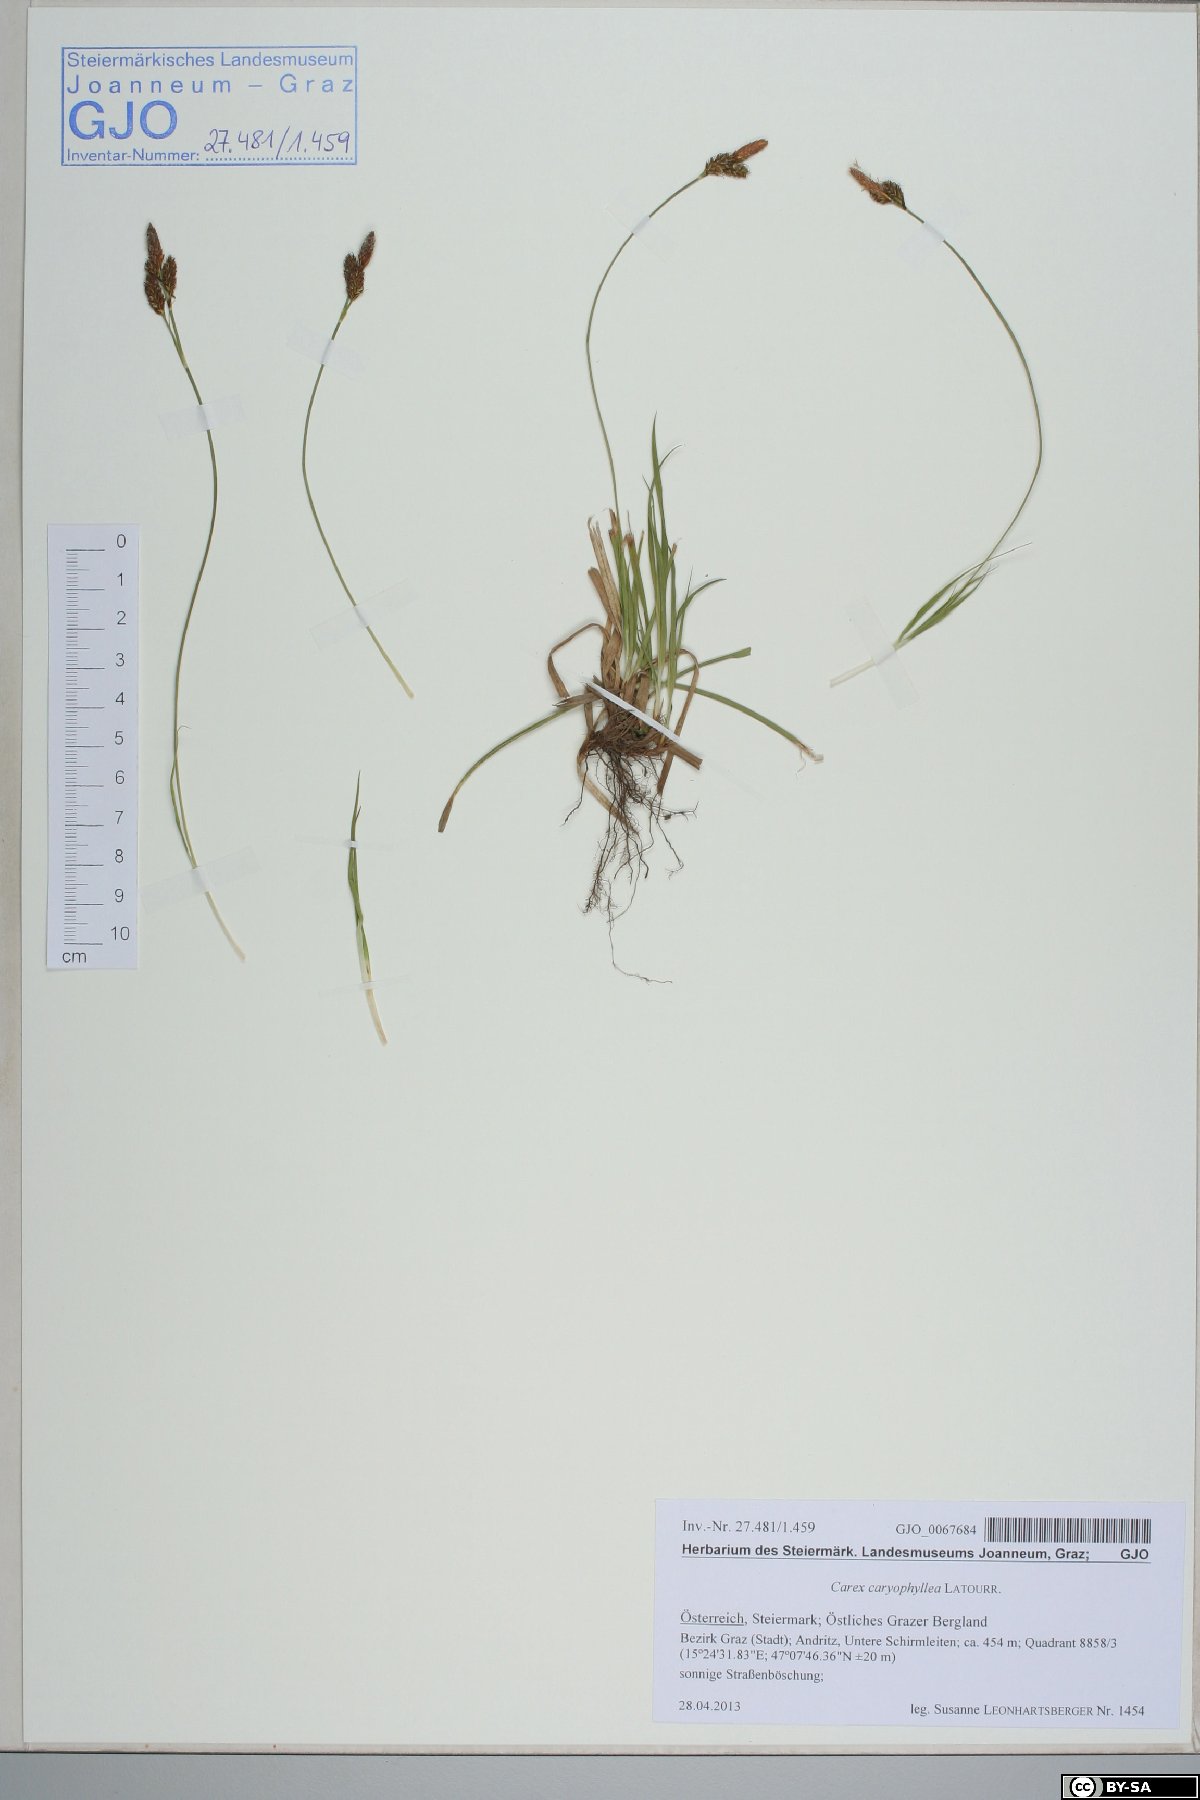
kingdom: Plantae
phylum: Tracheophyta
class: Liliopsida
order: Poales
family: Cyperaceae
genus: Carex
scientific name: Carex caryophyllea
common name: Spring sedge
